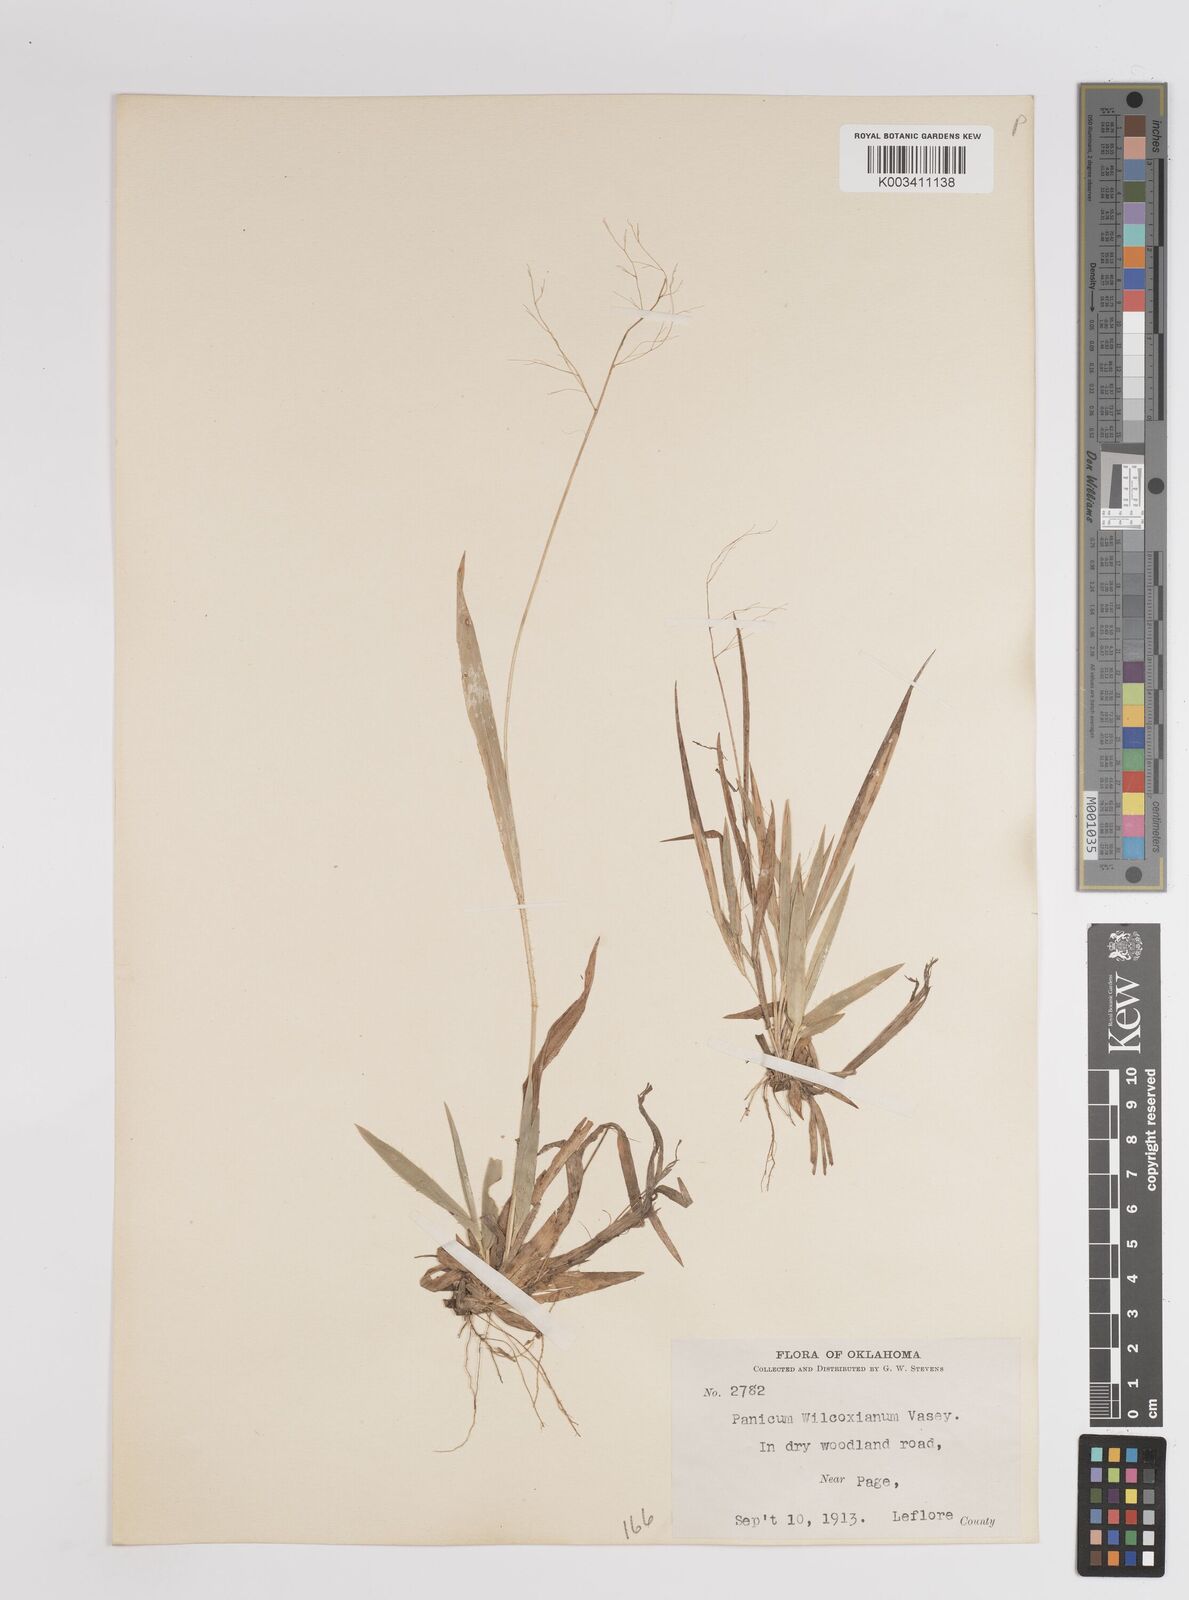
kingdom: Plantae
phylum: Tracheophyta
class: Liliopsida
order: Poales
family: Poaceae
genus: Dichanthelium
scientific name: Dichanthelium wilcoxianum
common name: Wilcox's panicgrass
